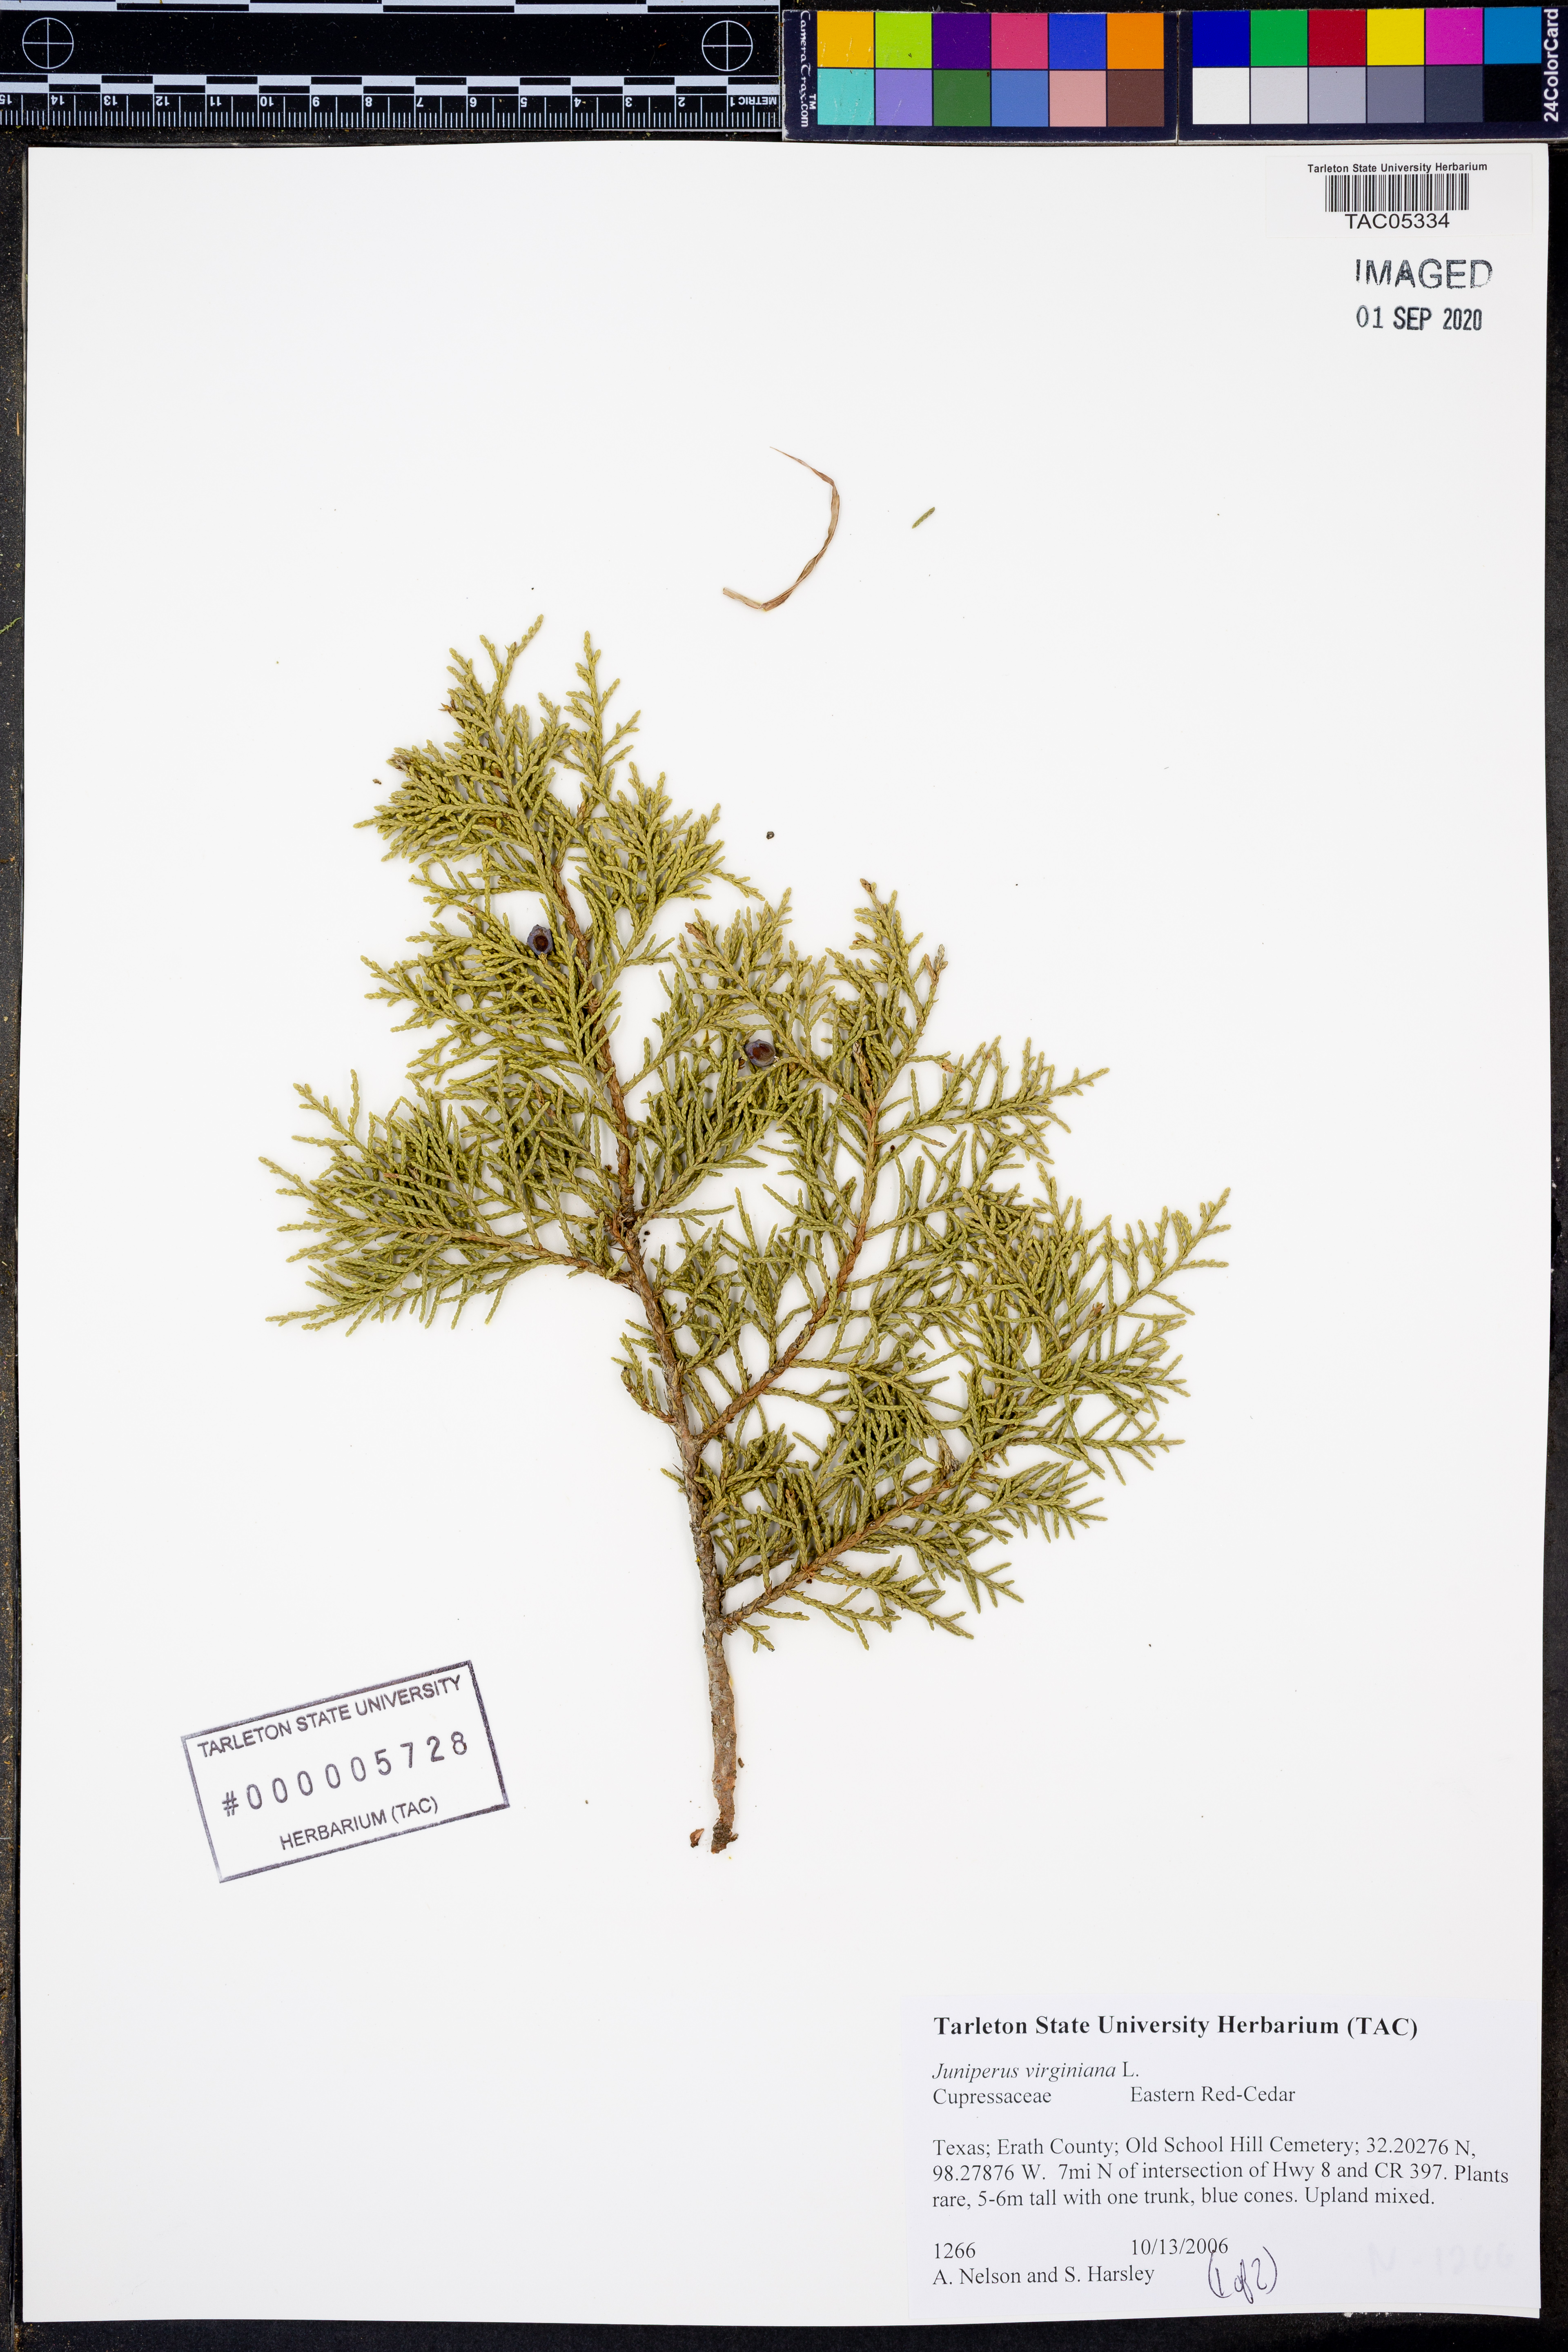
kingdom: Plantae
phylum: Tracheophyta
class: Pinopsida
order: Pinales
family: Cupressaceae
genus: Juniperus
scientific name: Juniperus virginiana
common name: Red juniper
